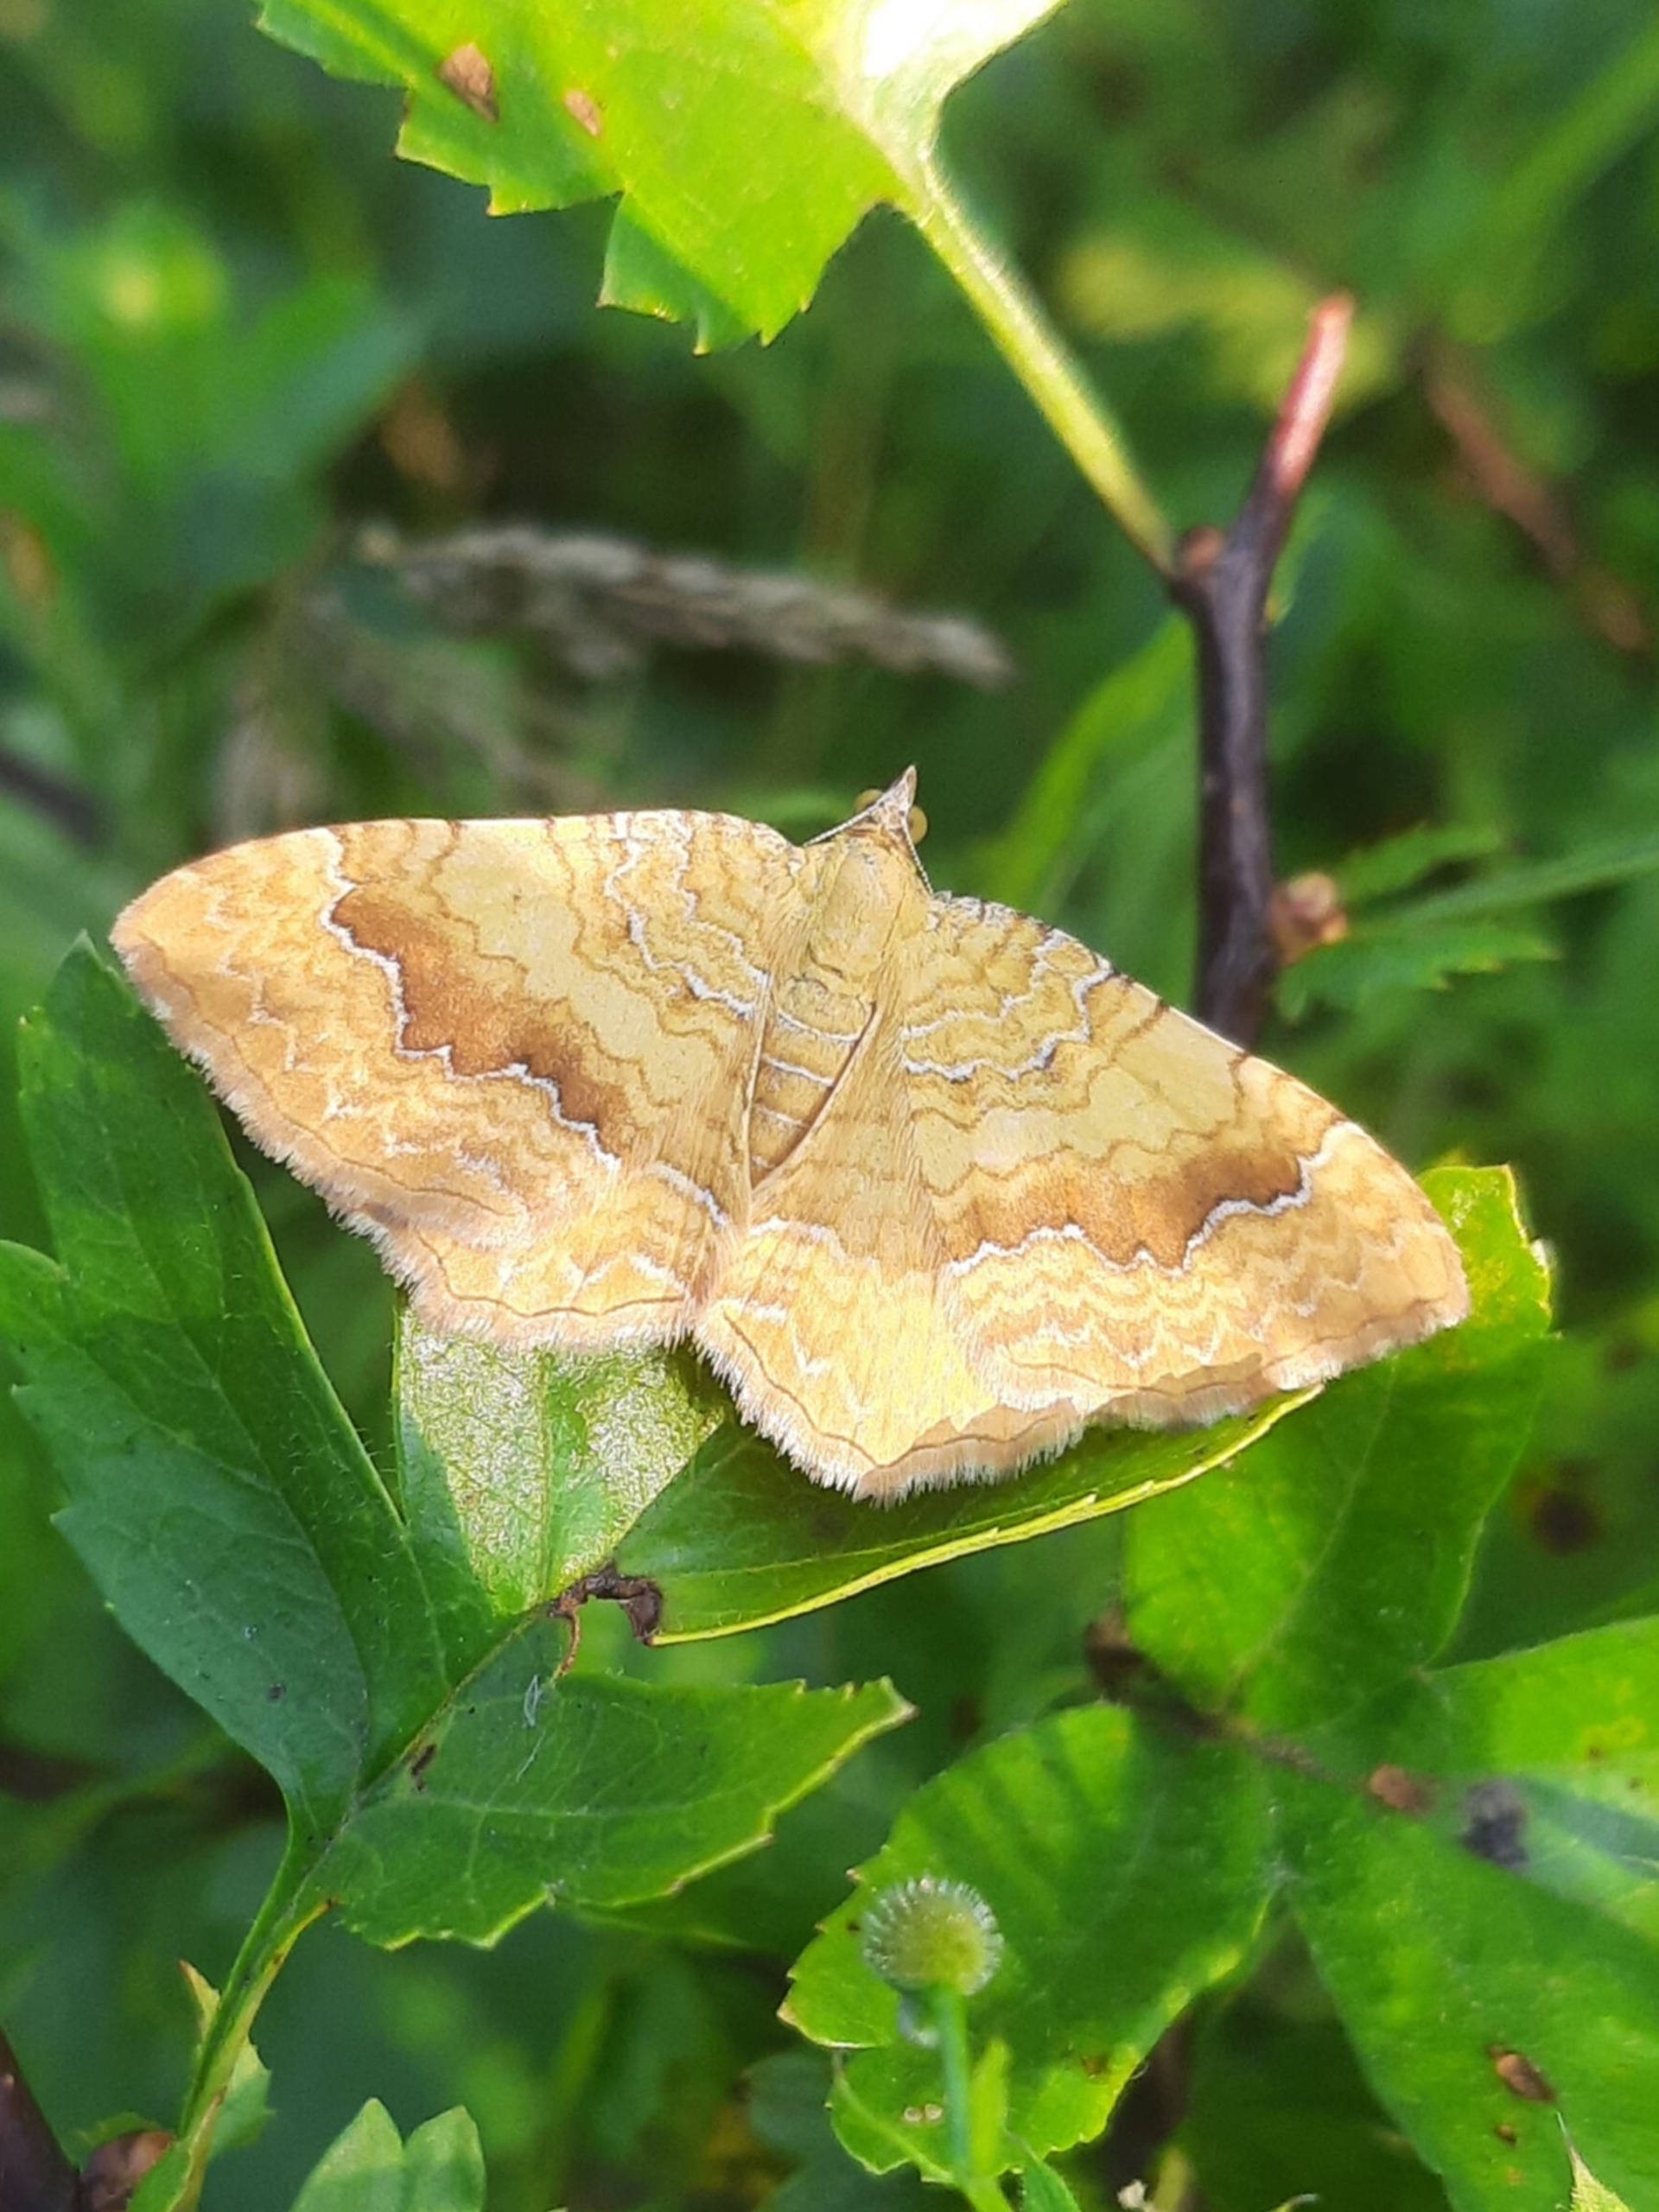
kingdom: Animalia
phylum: Arthropoda
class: Insecta
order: Lepidoptera
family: Geometridae
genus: Camptogramma
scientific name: Camptogramma bilineata
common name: Okkergul bladmåler
